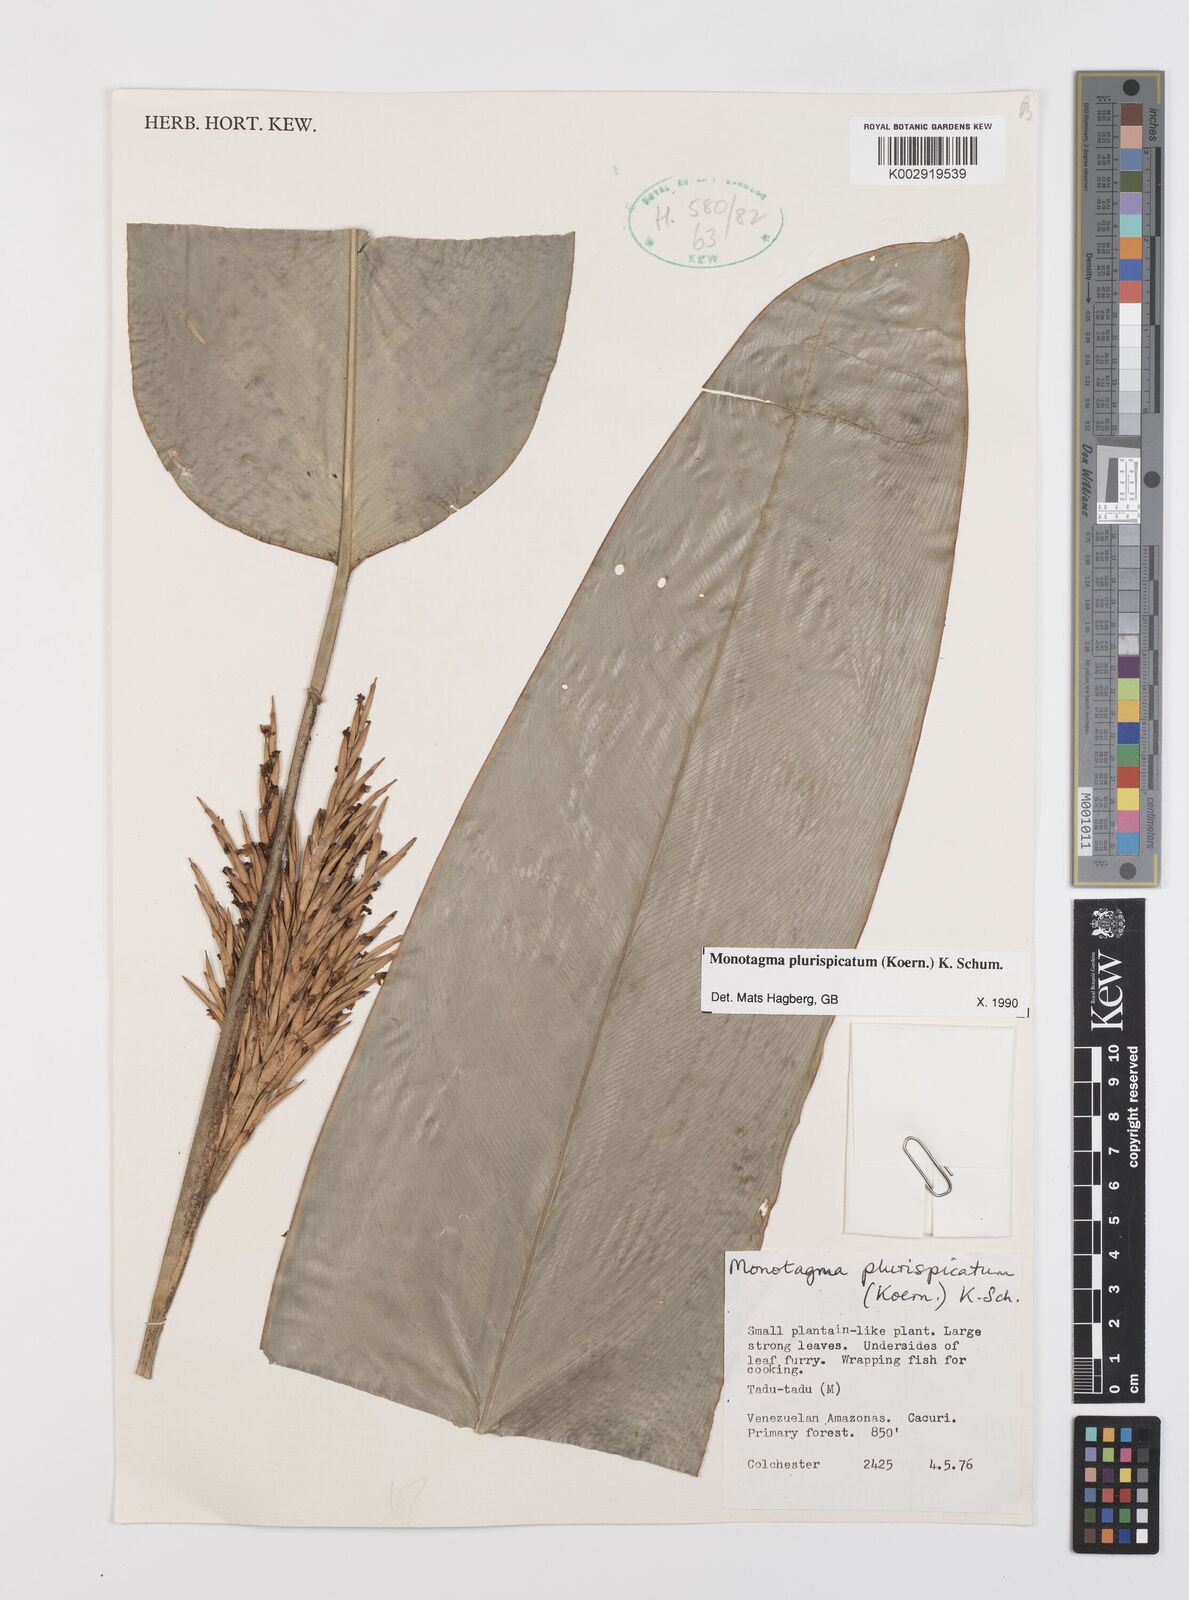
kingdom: Plantae
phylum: Tracheophyta
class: Liliopsida
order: Zingiberales
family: Marantaceae
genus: Monotagma
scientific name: Monotagma plurispicatum
